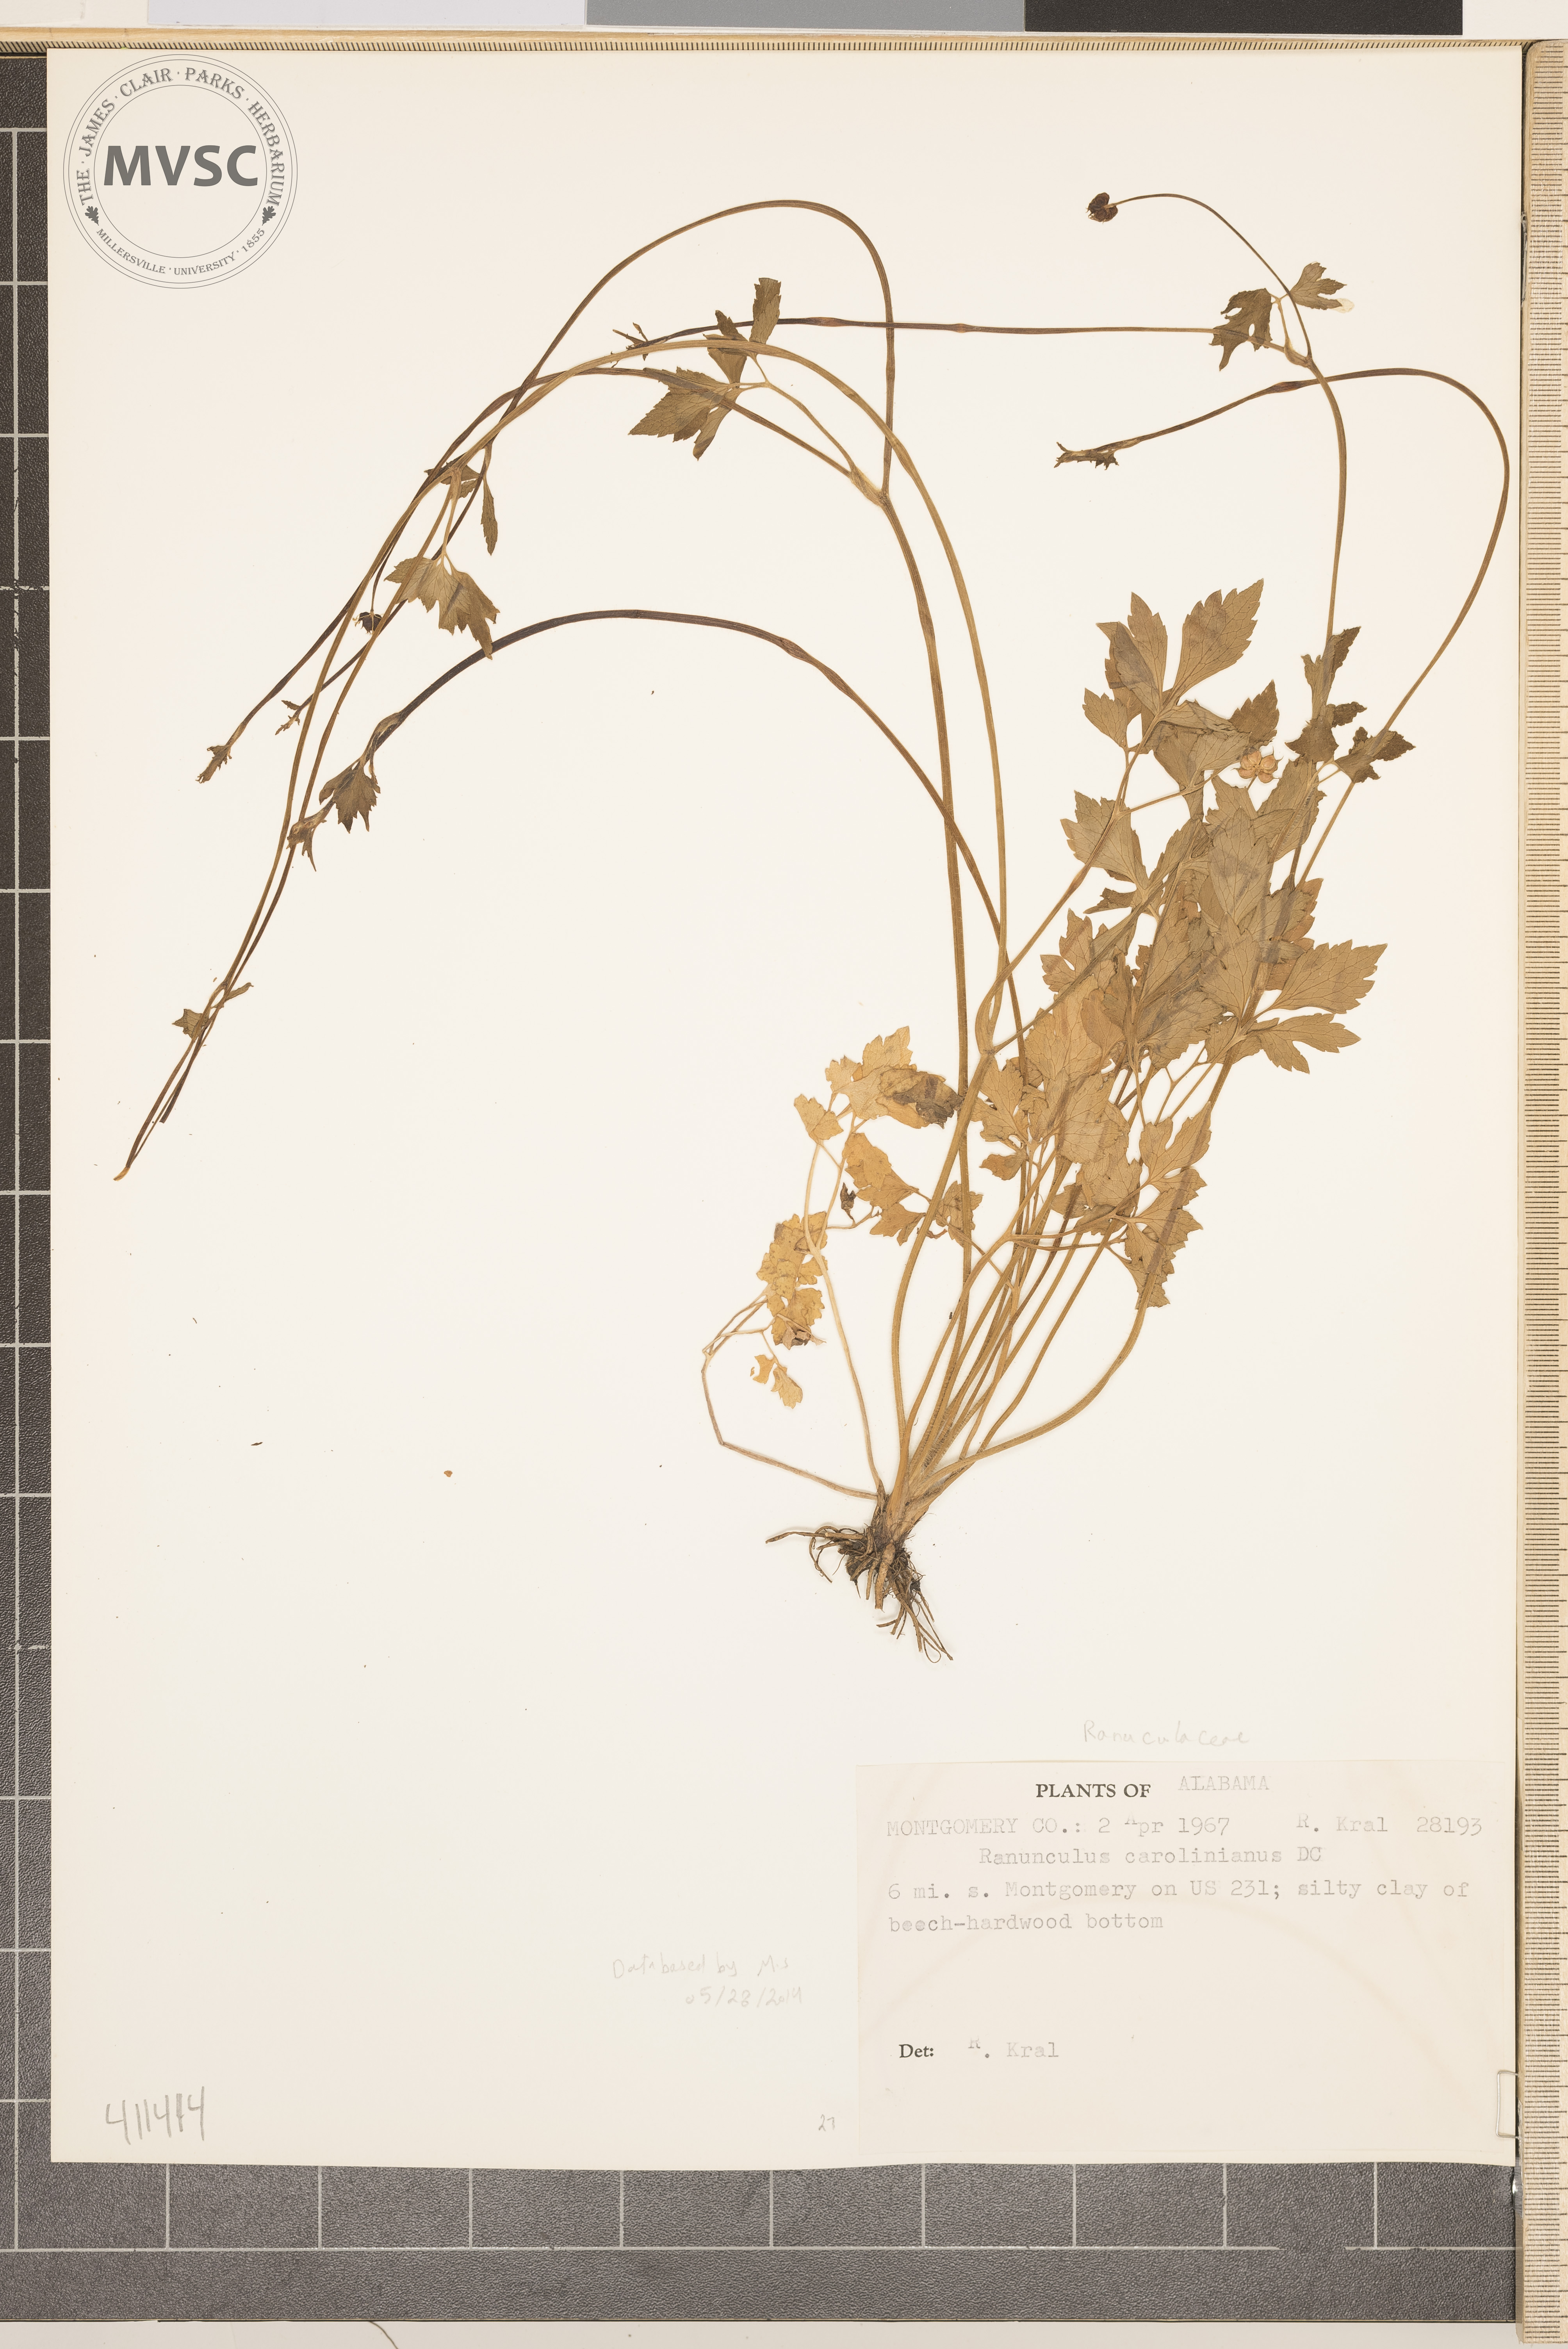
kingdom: Plantae
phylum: Tracheophyta
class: Magnoliopsida
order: Ranunculales
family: Ranunculaceae
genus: Ranunculus
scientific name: Ranunculus hispidus
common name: Bristly buttercup
